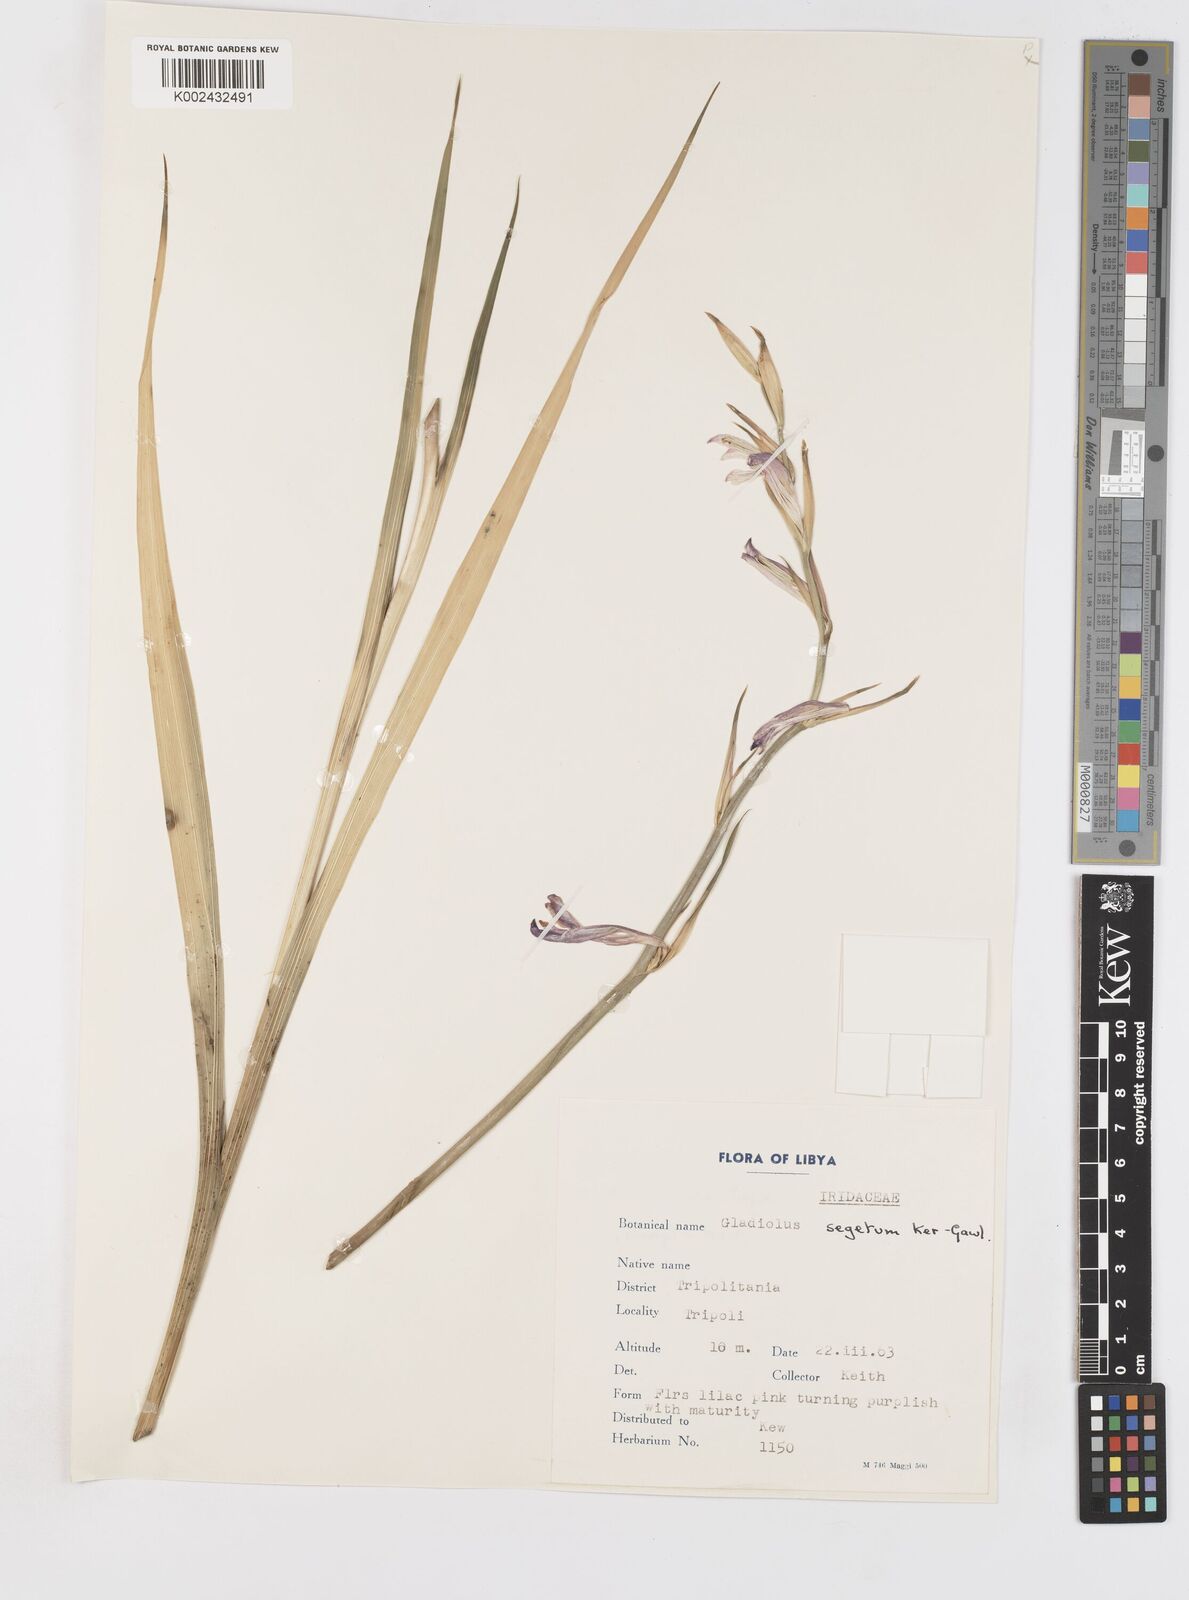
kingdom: Plantae
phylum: Tracheophyta
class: Liliopsida
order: Asparagales
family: Iridaceae
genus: Gladiolus
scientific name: Gladiolus italicus
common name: Field gladiolus
